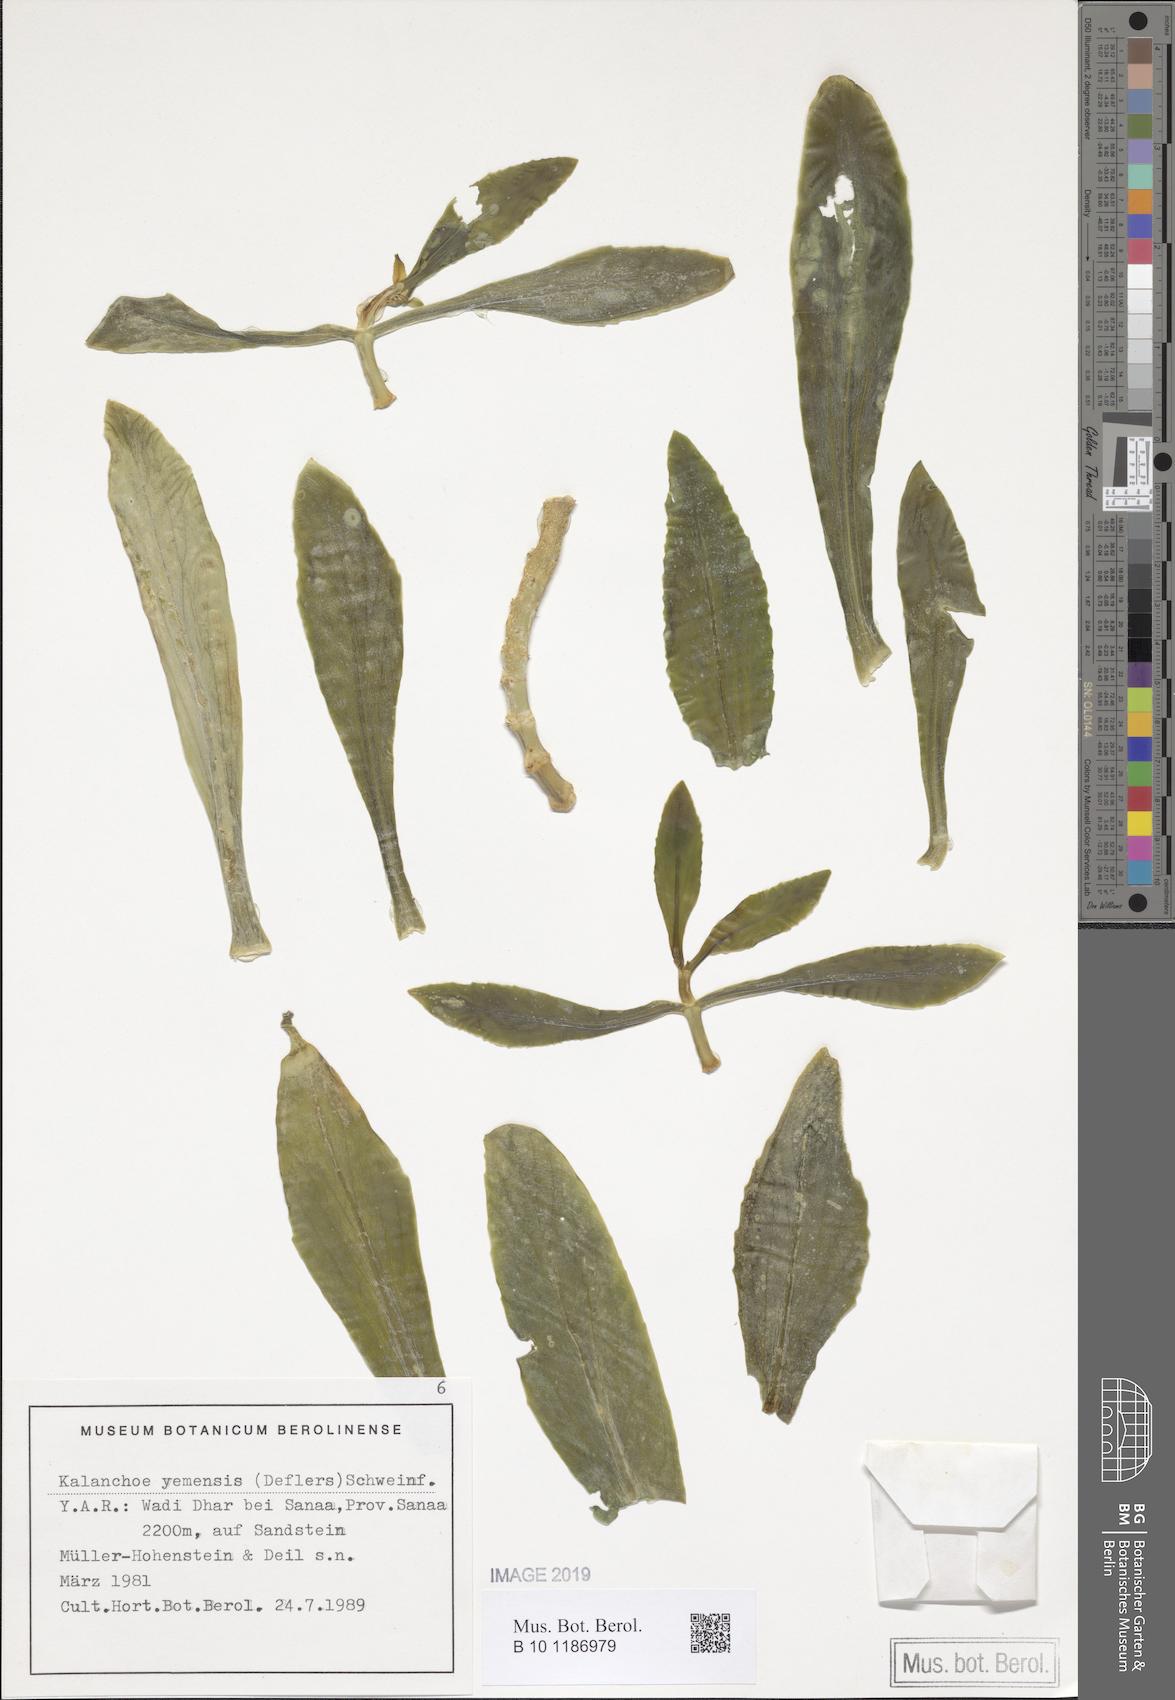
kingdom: Plantae
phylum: Tracheophyta
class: Magnoliopsida
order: Saxifragales
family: Crassulaceae
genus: Kalanchoe
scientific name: Kalanchoe yemensis
